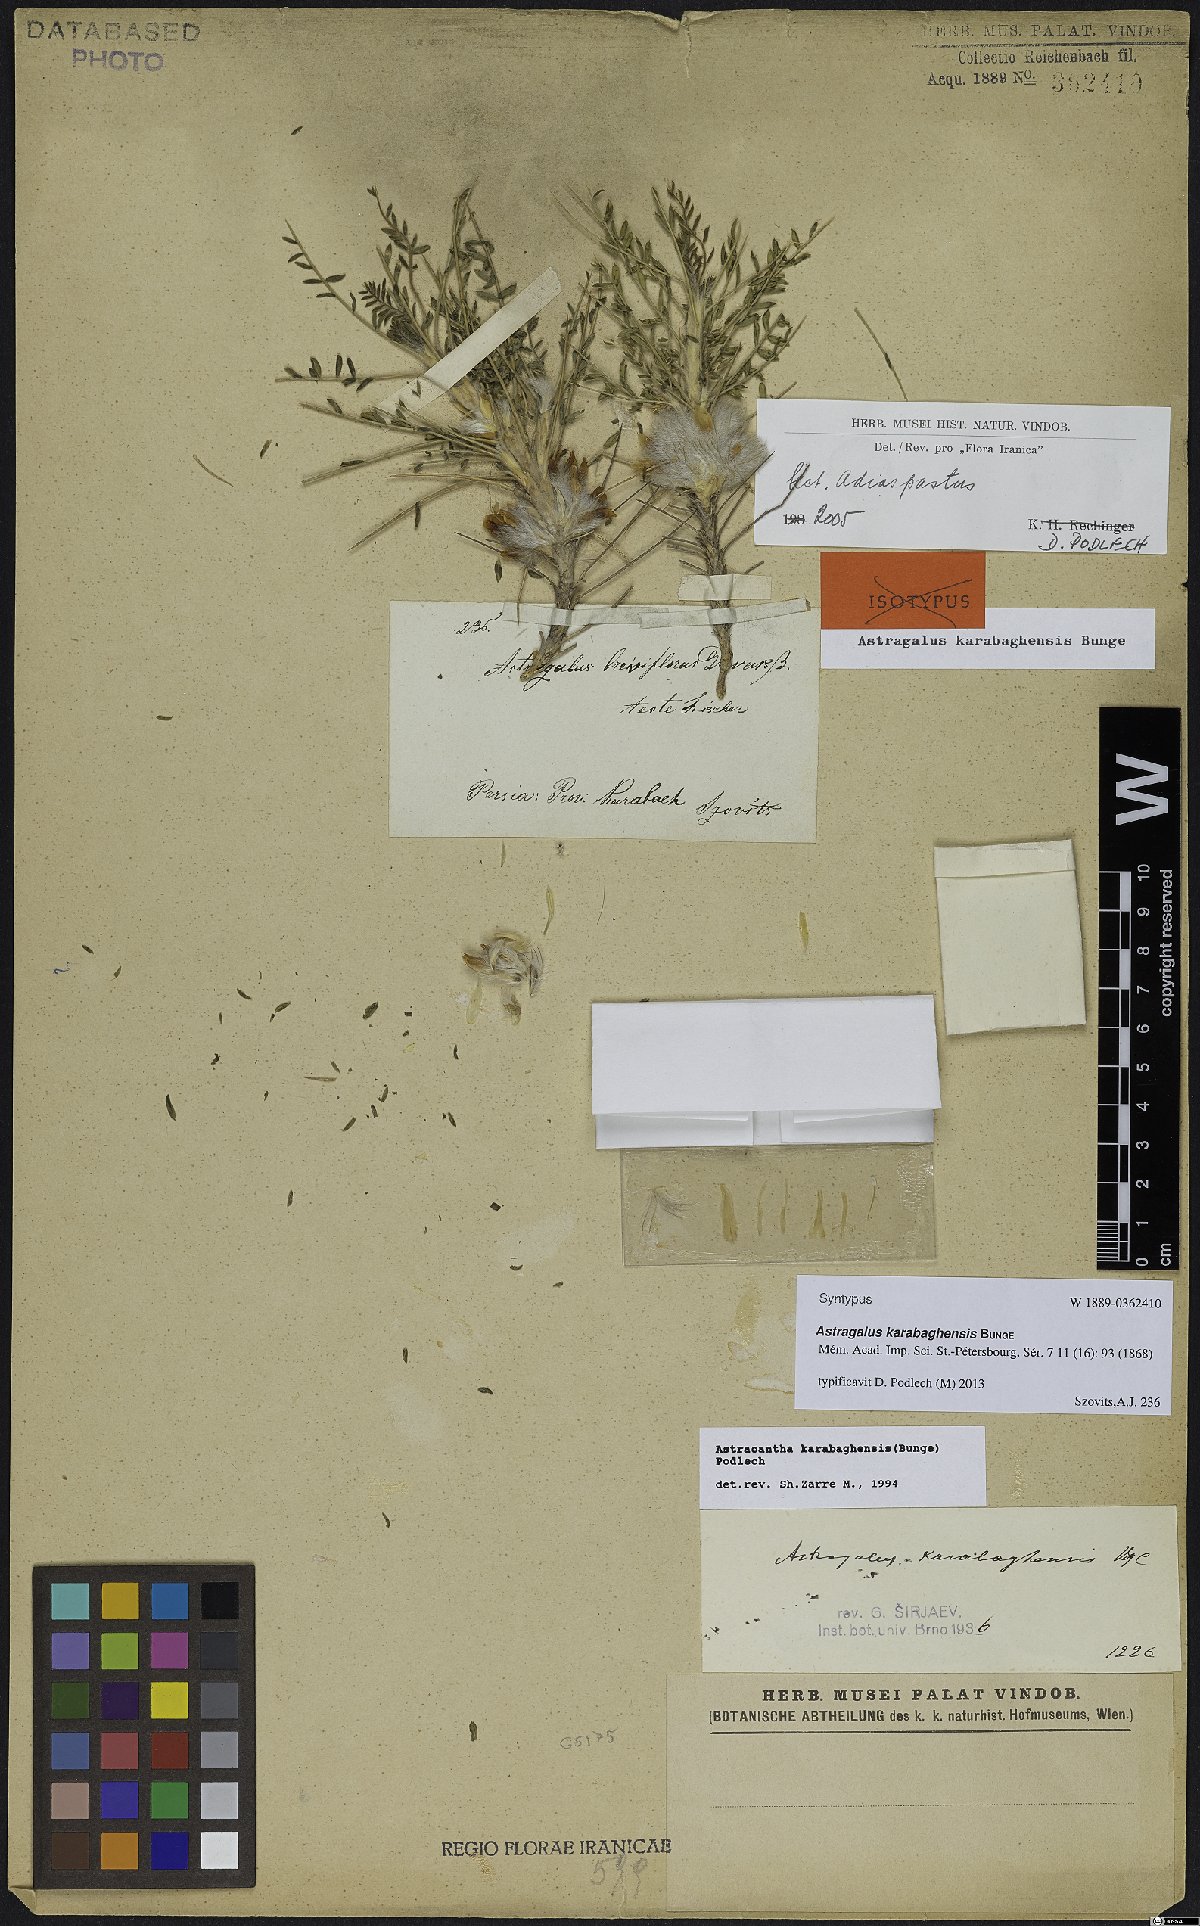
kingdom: Plantae
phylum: Tracheophyta
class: Magnoliopsida
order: Fabales
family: Fabaceae
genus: Astragalus
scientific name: Astragalus karabaghensis
